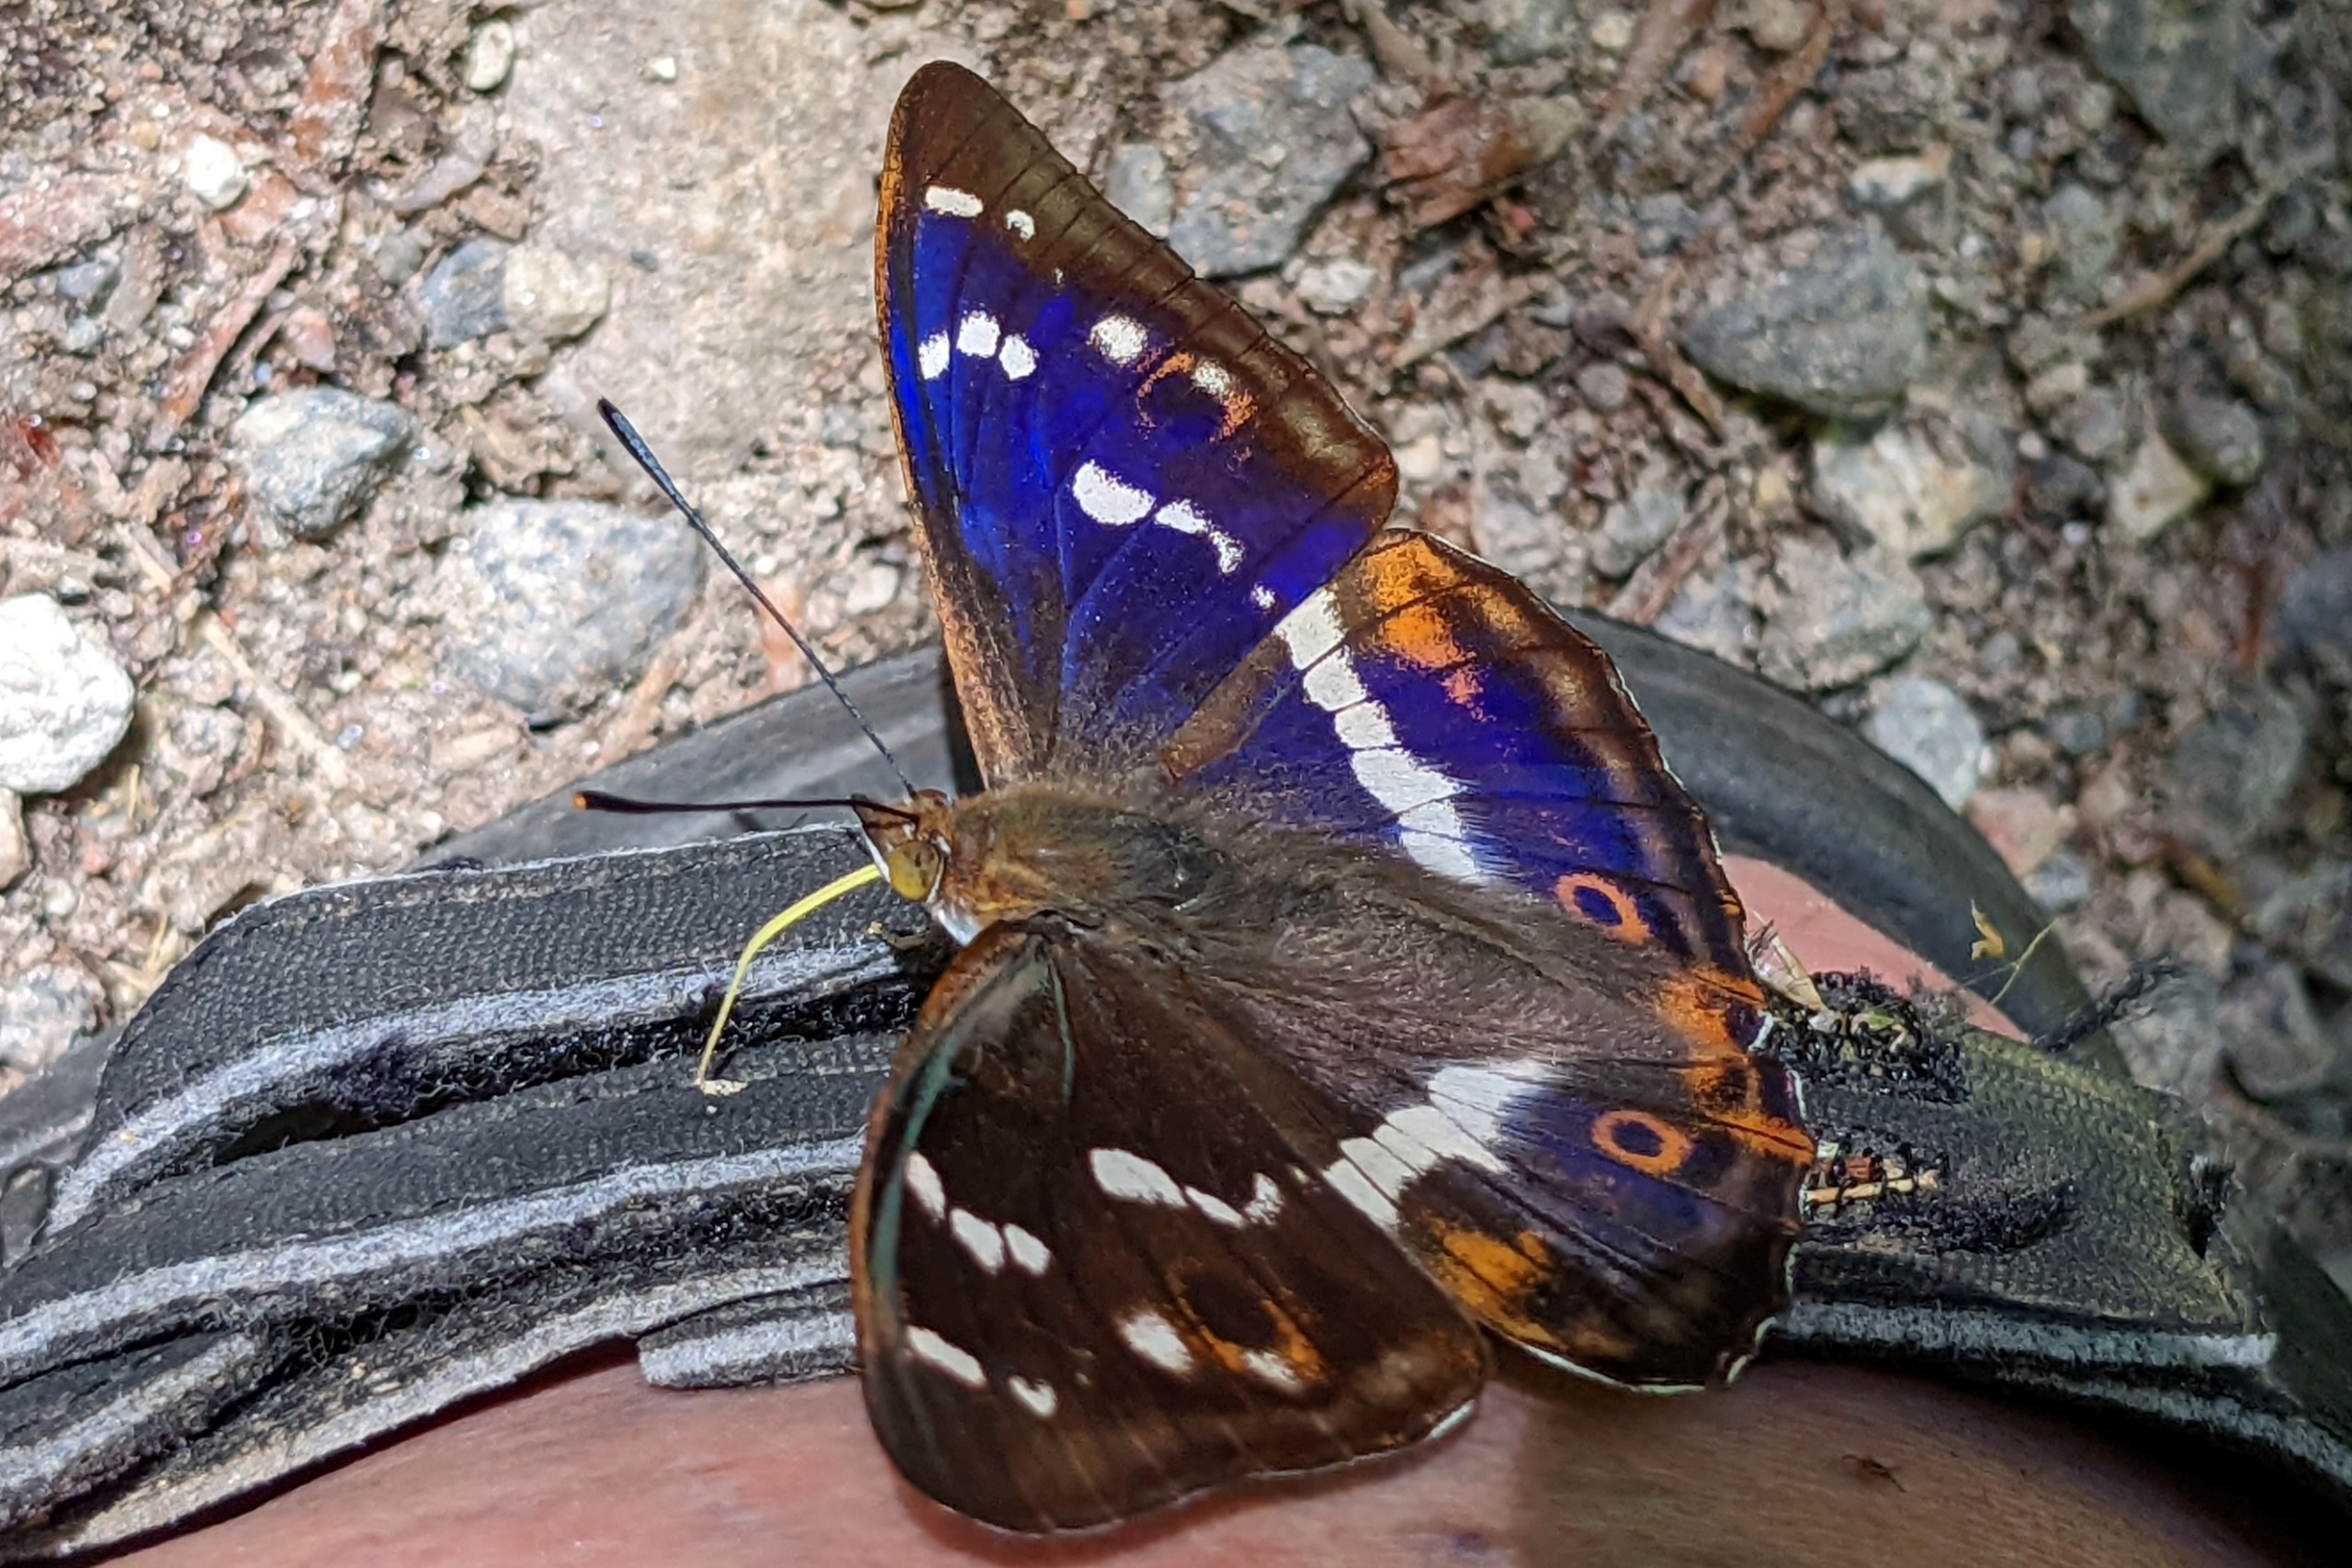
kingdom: Animalia
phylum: Arthropoda
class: Insecta
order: Lepidoptera
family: Nymphalidae
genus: Apatura
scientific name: Apatura iris
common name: Iris
